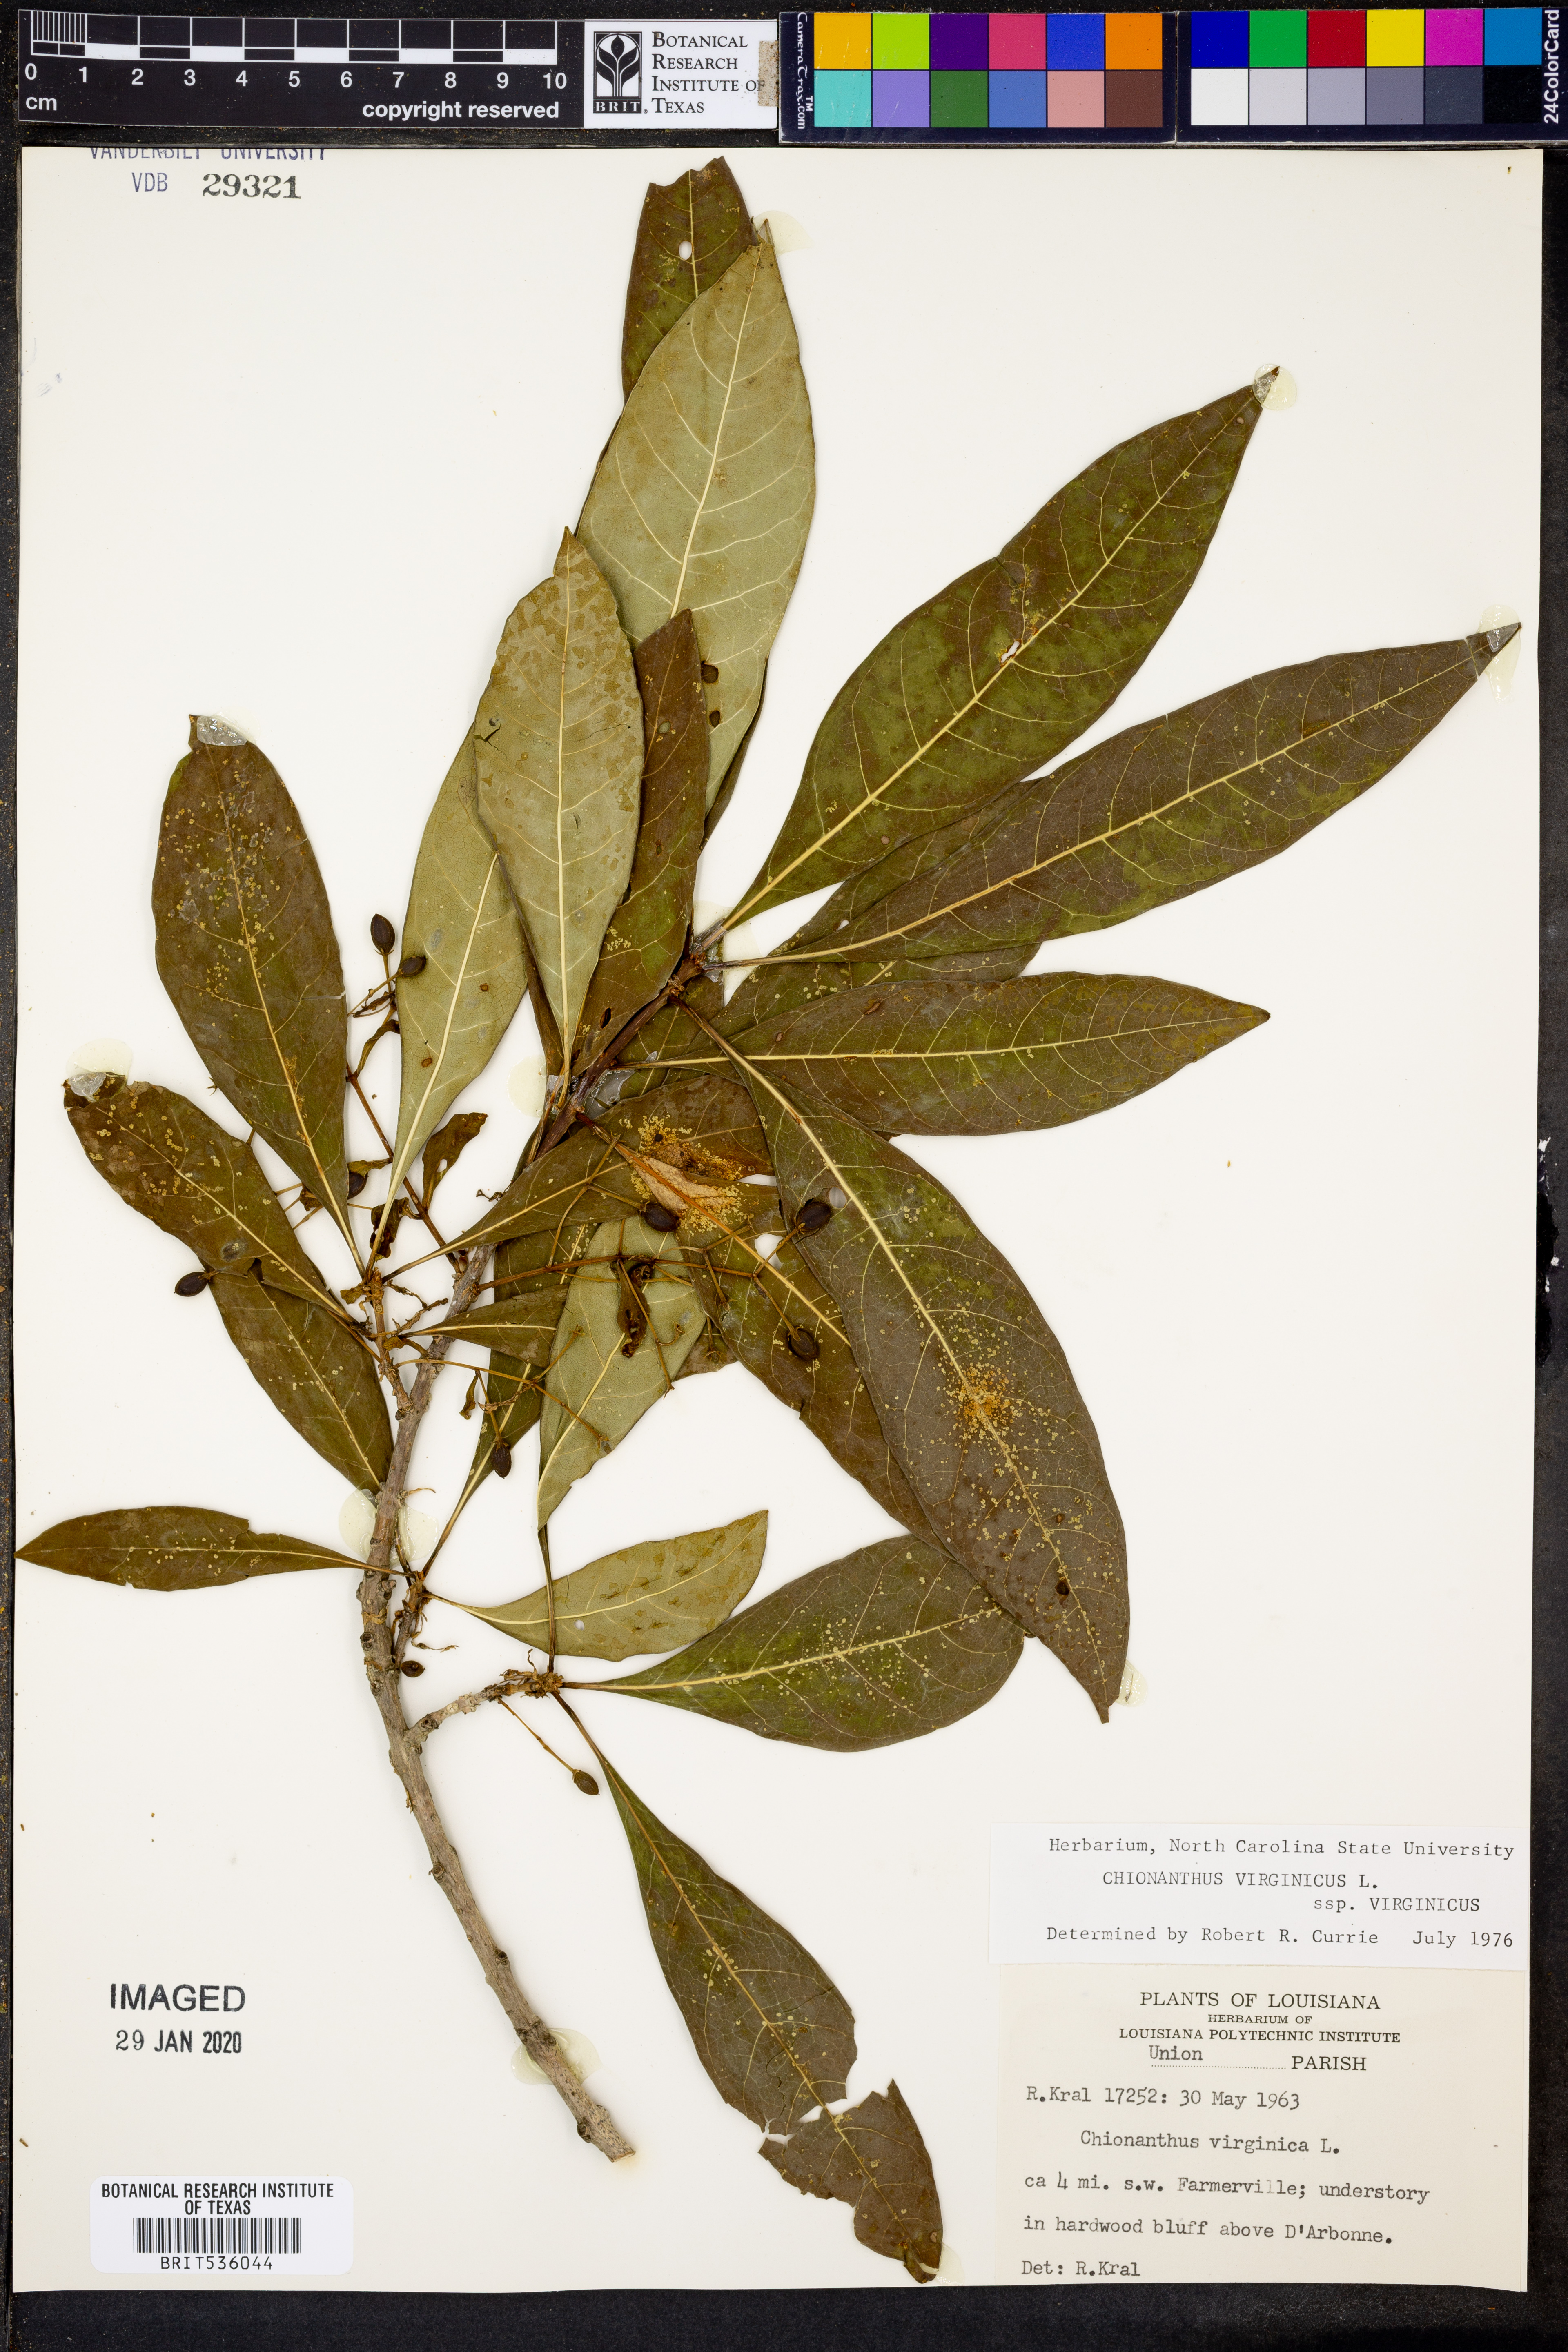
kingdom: Plantae
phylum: Tracheophyta
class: Magnoliopsida
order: Lamiales
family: Oleaceae
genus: Chionanthus
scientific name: Chionanthus virginicus
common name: American fringetree
